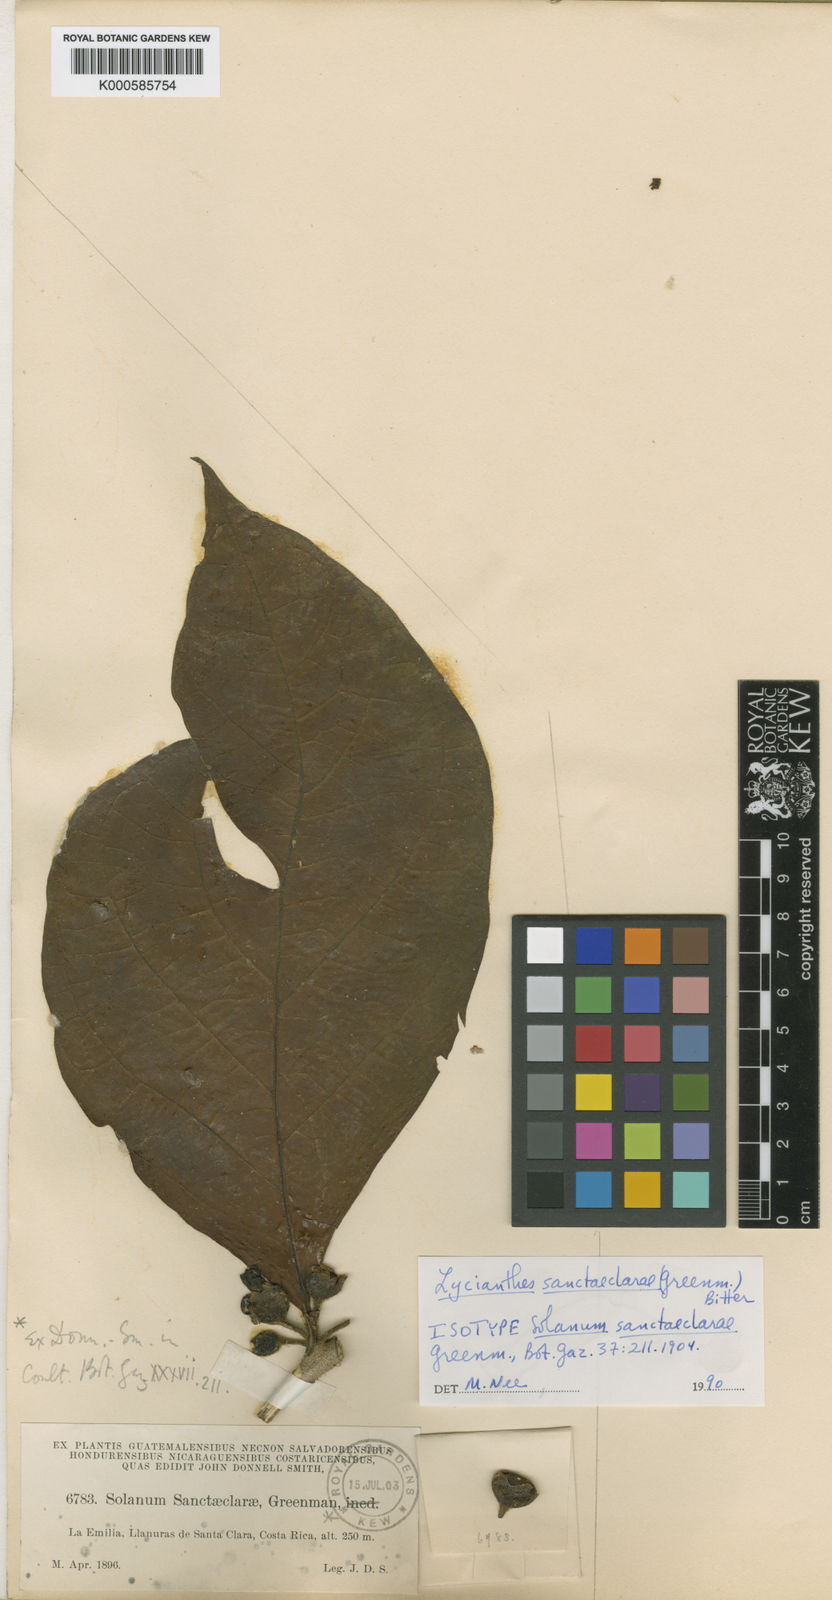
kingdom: Plantae
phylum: Tracheophyta
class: Magnoliopsida
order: Solanales
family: Solanaceae
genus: Lycianthes
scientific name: Lycianthes sanctaeclarae
